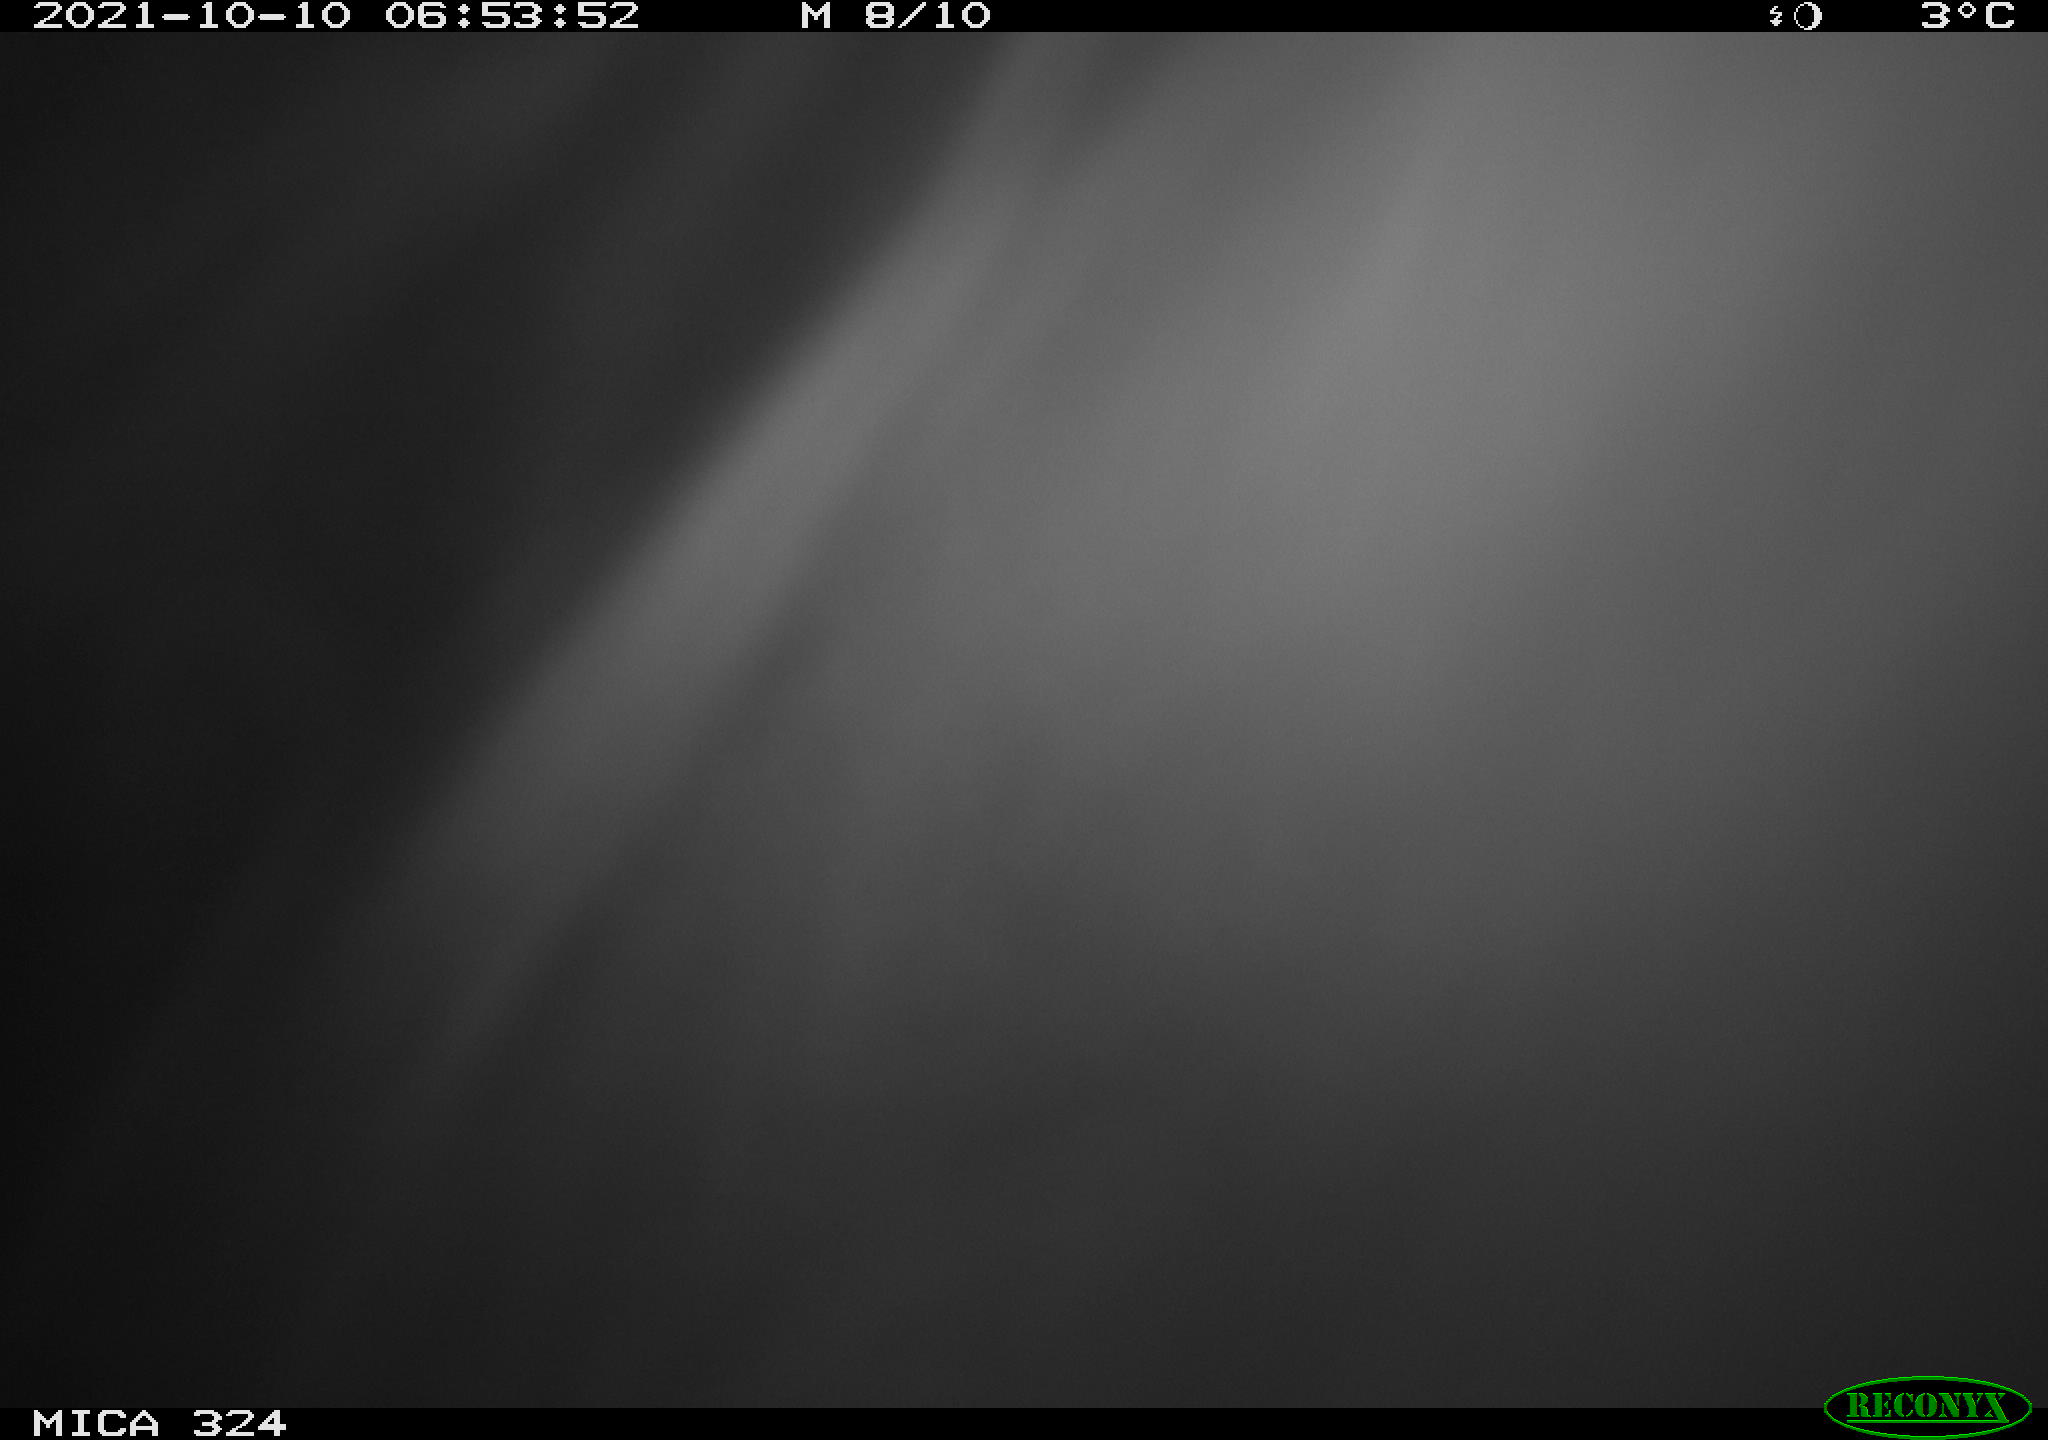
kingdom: Animalia
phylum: Chordata
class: Mammalia
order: Rodentia
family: Cricetidae
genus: Ondatra
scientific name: Ondatra zibethicus
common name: Muskrat
